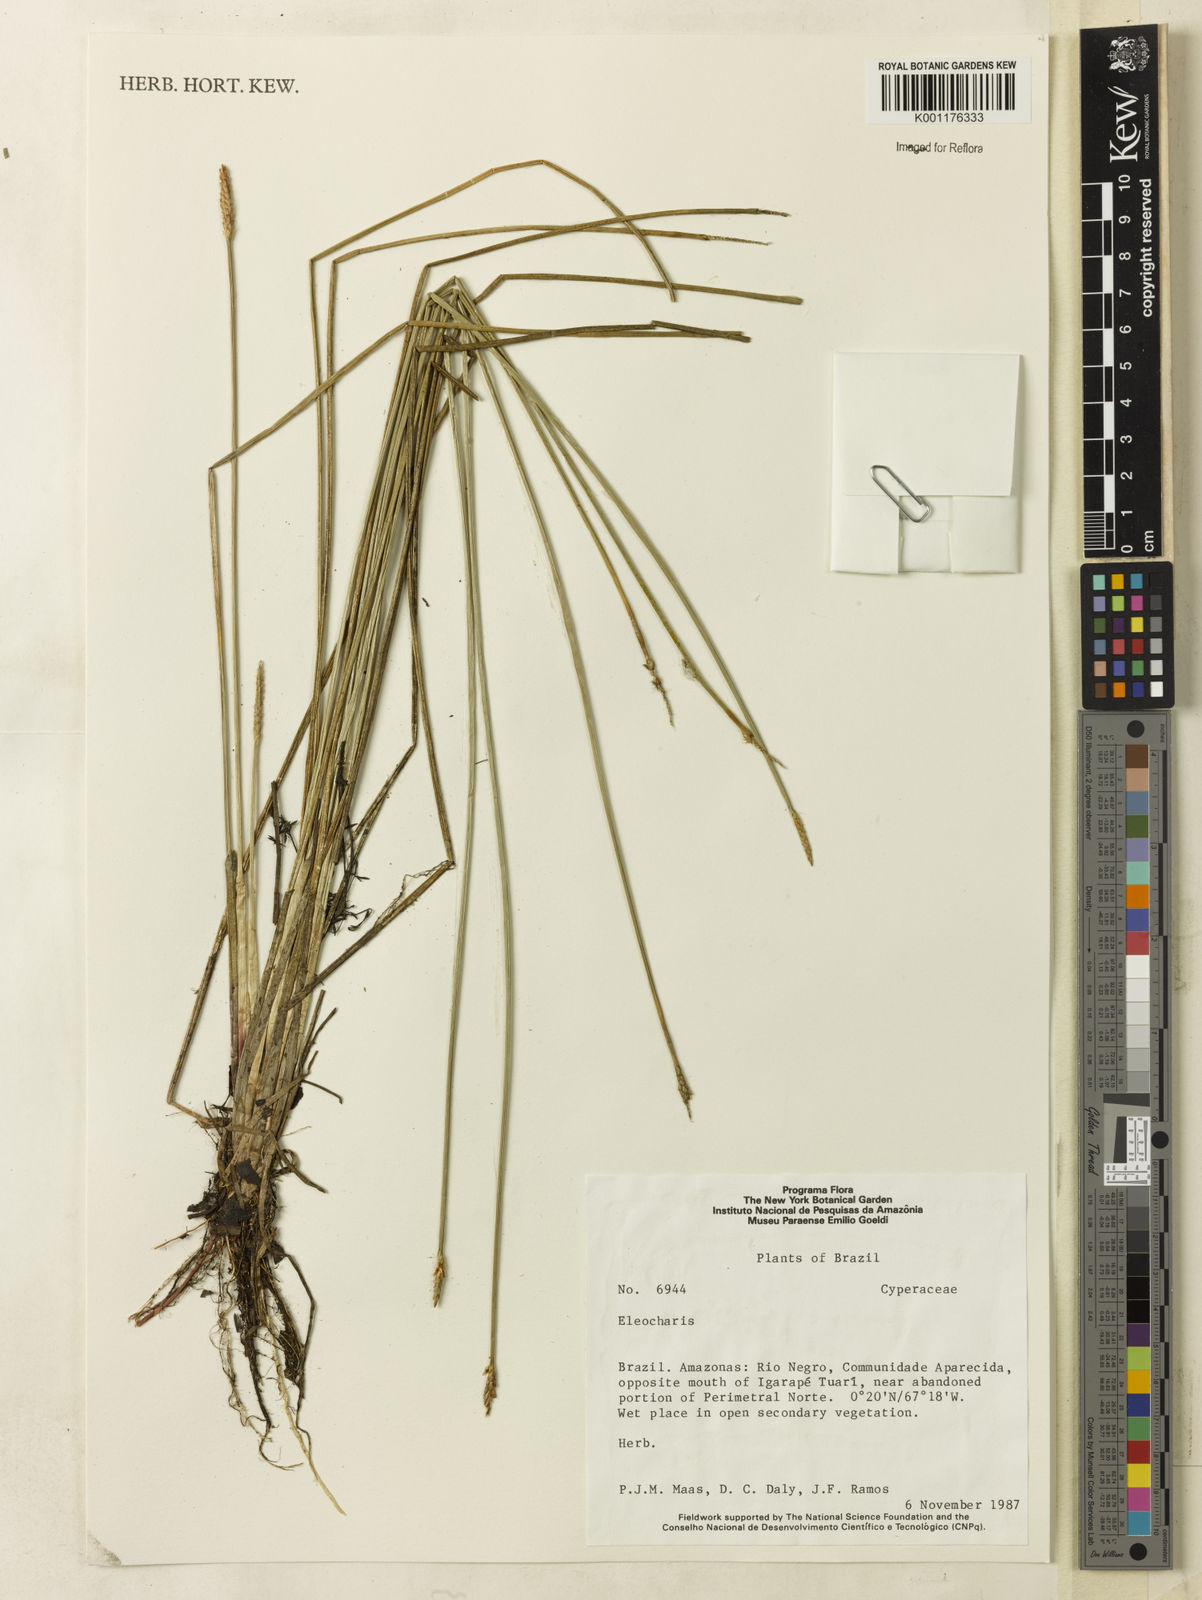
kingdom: Plantae
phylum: Tracheophyta
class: Liliopsida
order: Poales
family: Cyperaceae
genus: Eleocharis
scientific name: Eleocharis
